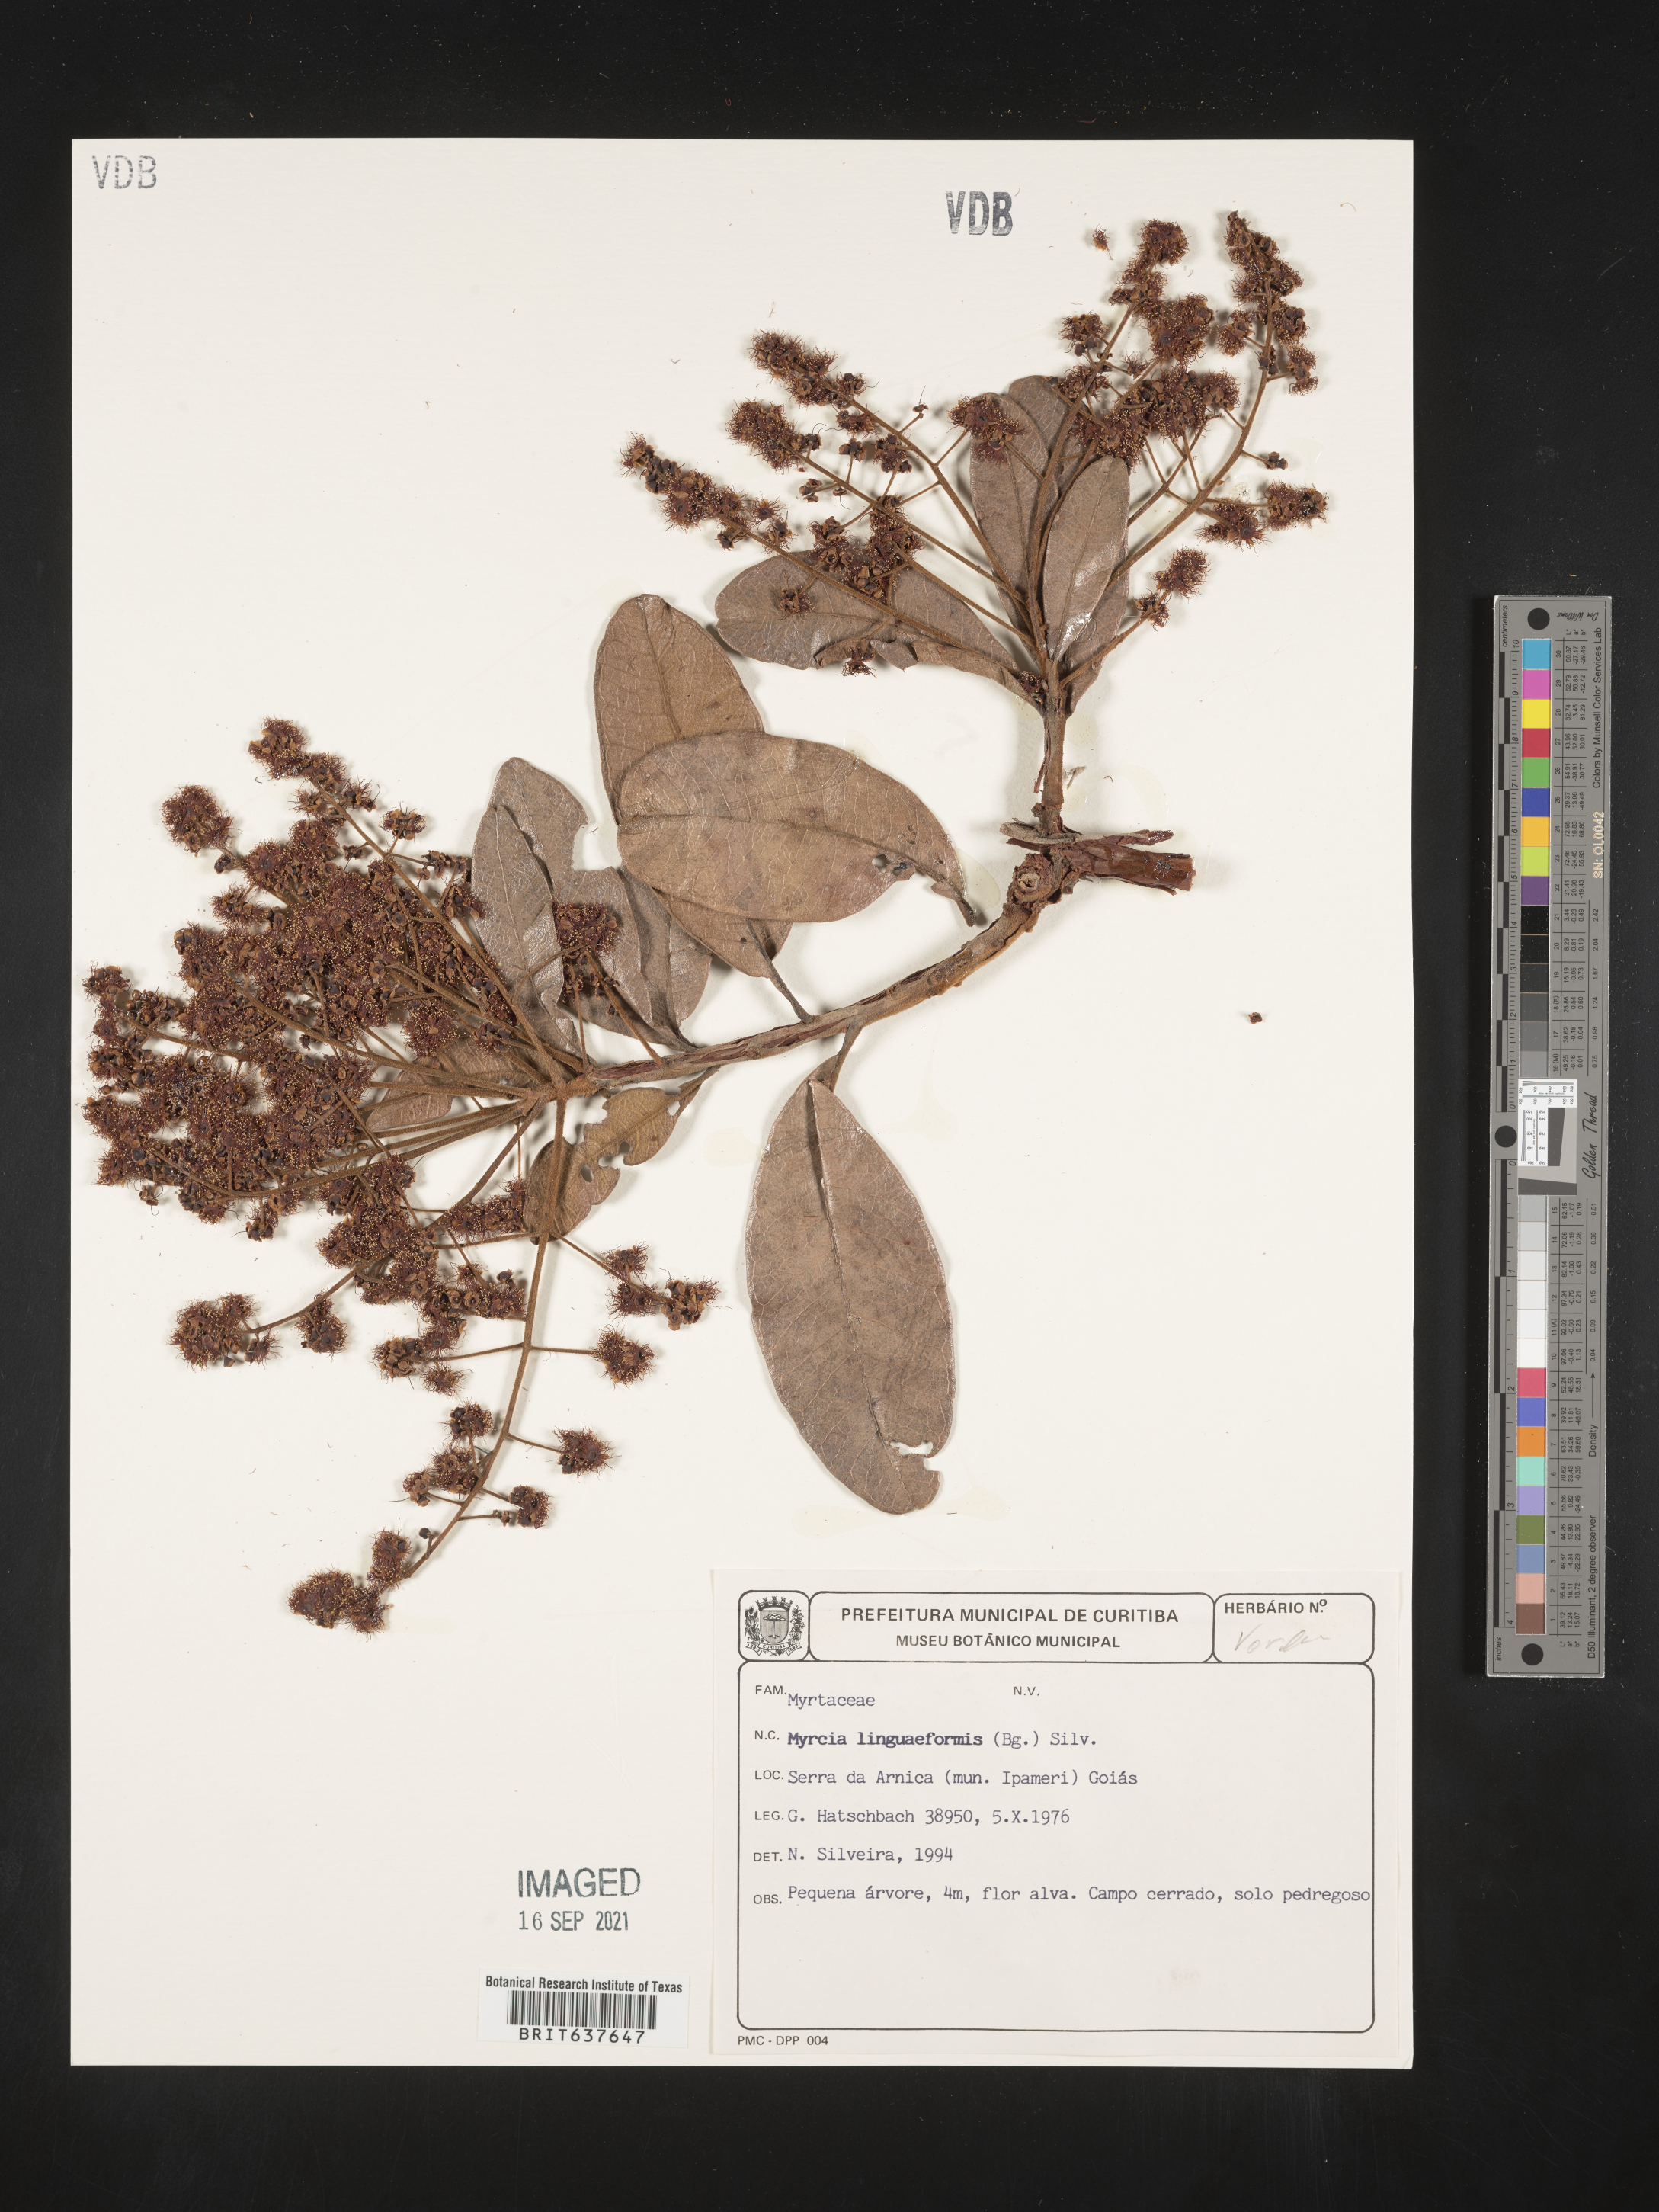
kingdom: Plantae
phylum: Tracheophyta
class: Magnoliopsida
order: Myrtales
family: Myrtaceae
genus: Myrcia
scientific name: Myrcia
